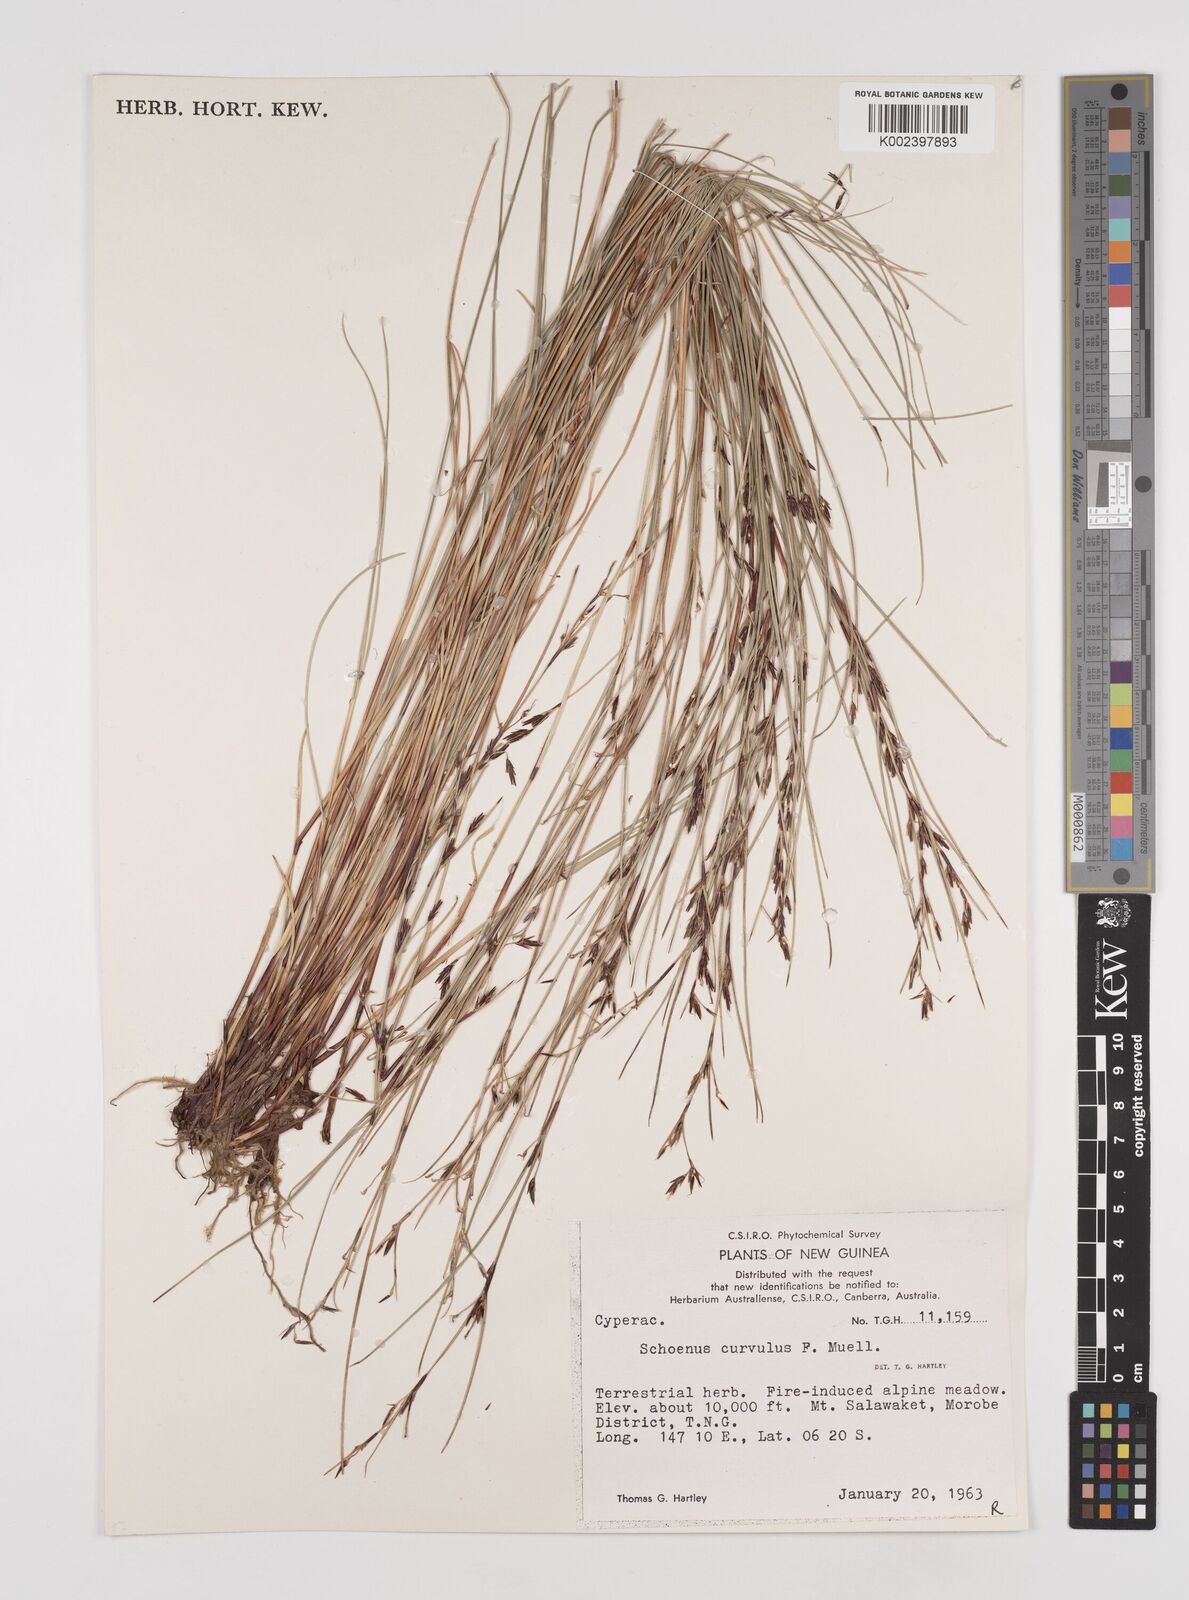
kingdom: Plantae
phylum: Tracheophyta
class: Liliopsida
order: Poales
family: Cyperaceae
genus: Schoenus
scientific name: Schoenus curvulus
